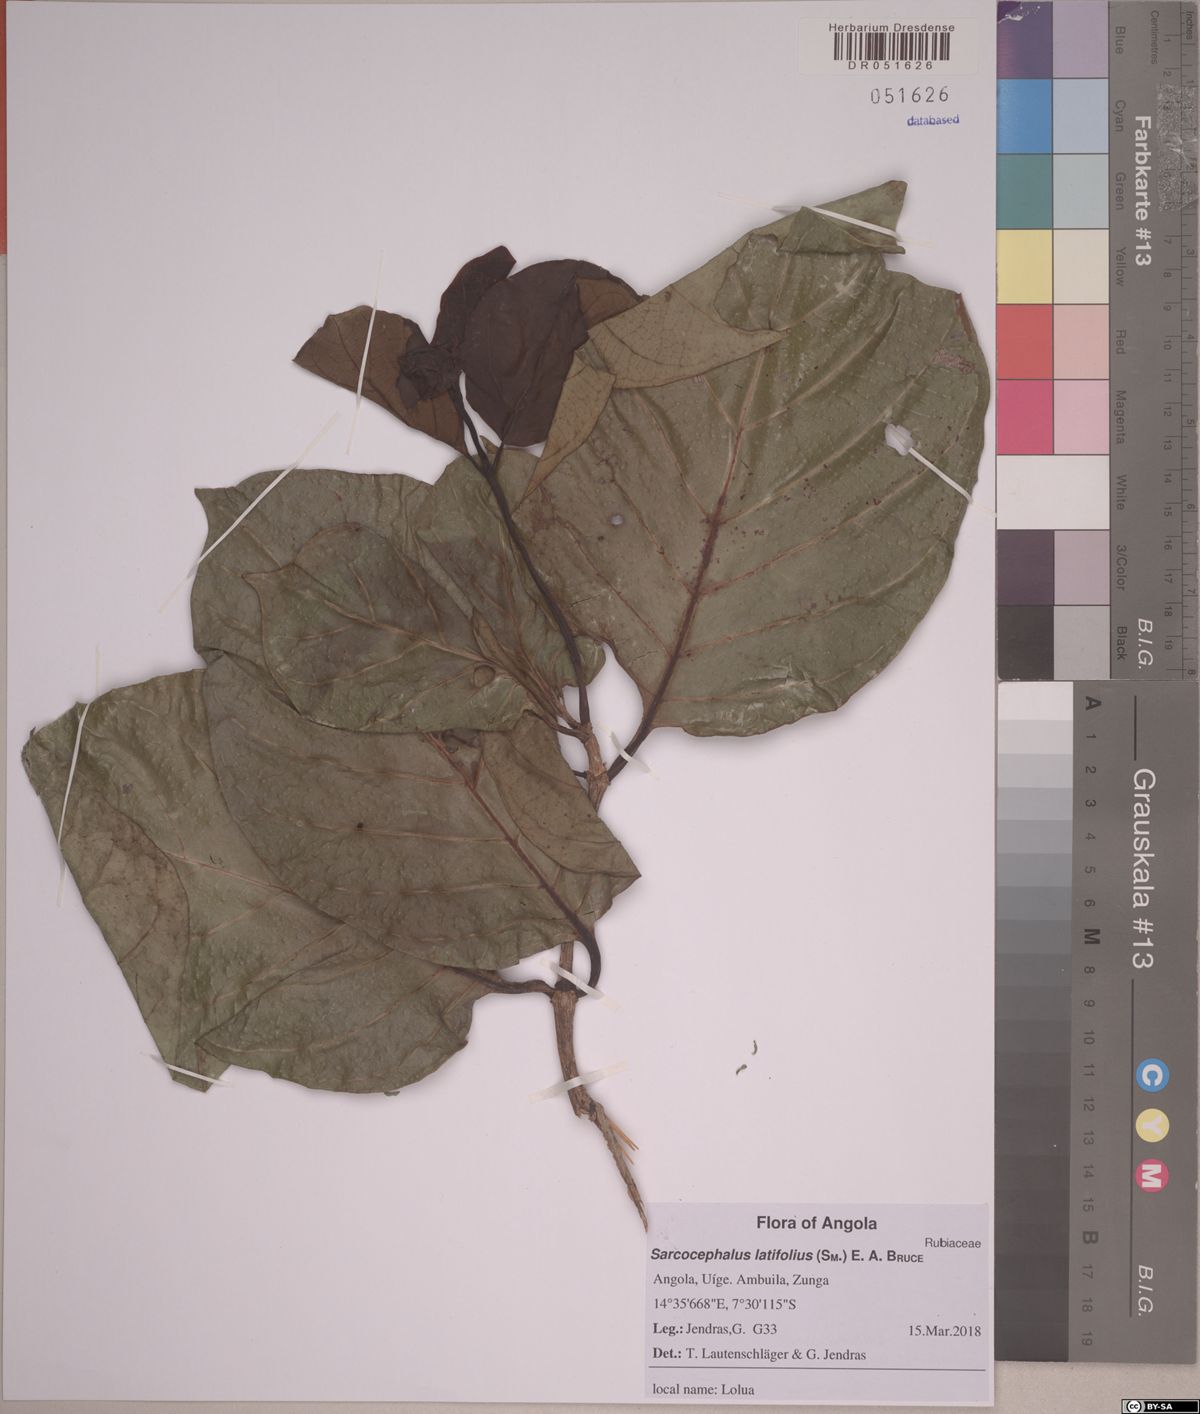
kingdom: Plantae
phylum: Tracheophyta
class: Magnoliopsida
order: Gentianales
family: Rubiaceae
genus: Nauclea
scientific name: Nauclea latifolia
